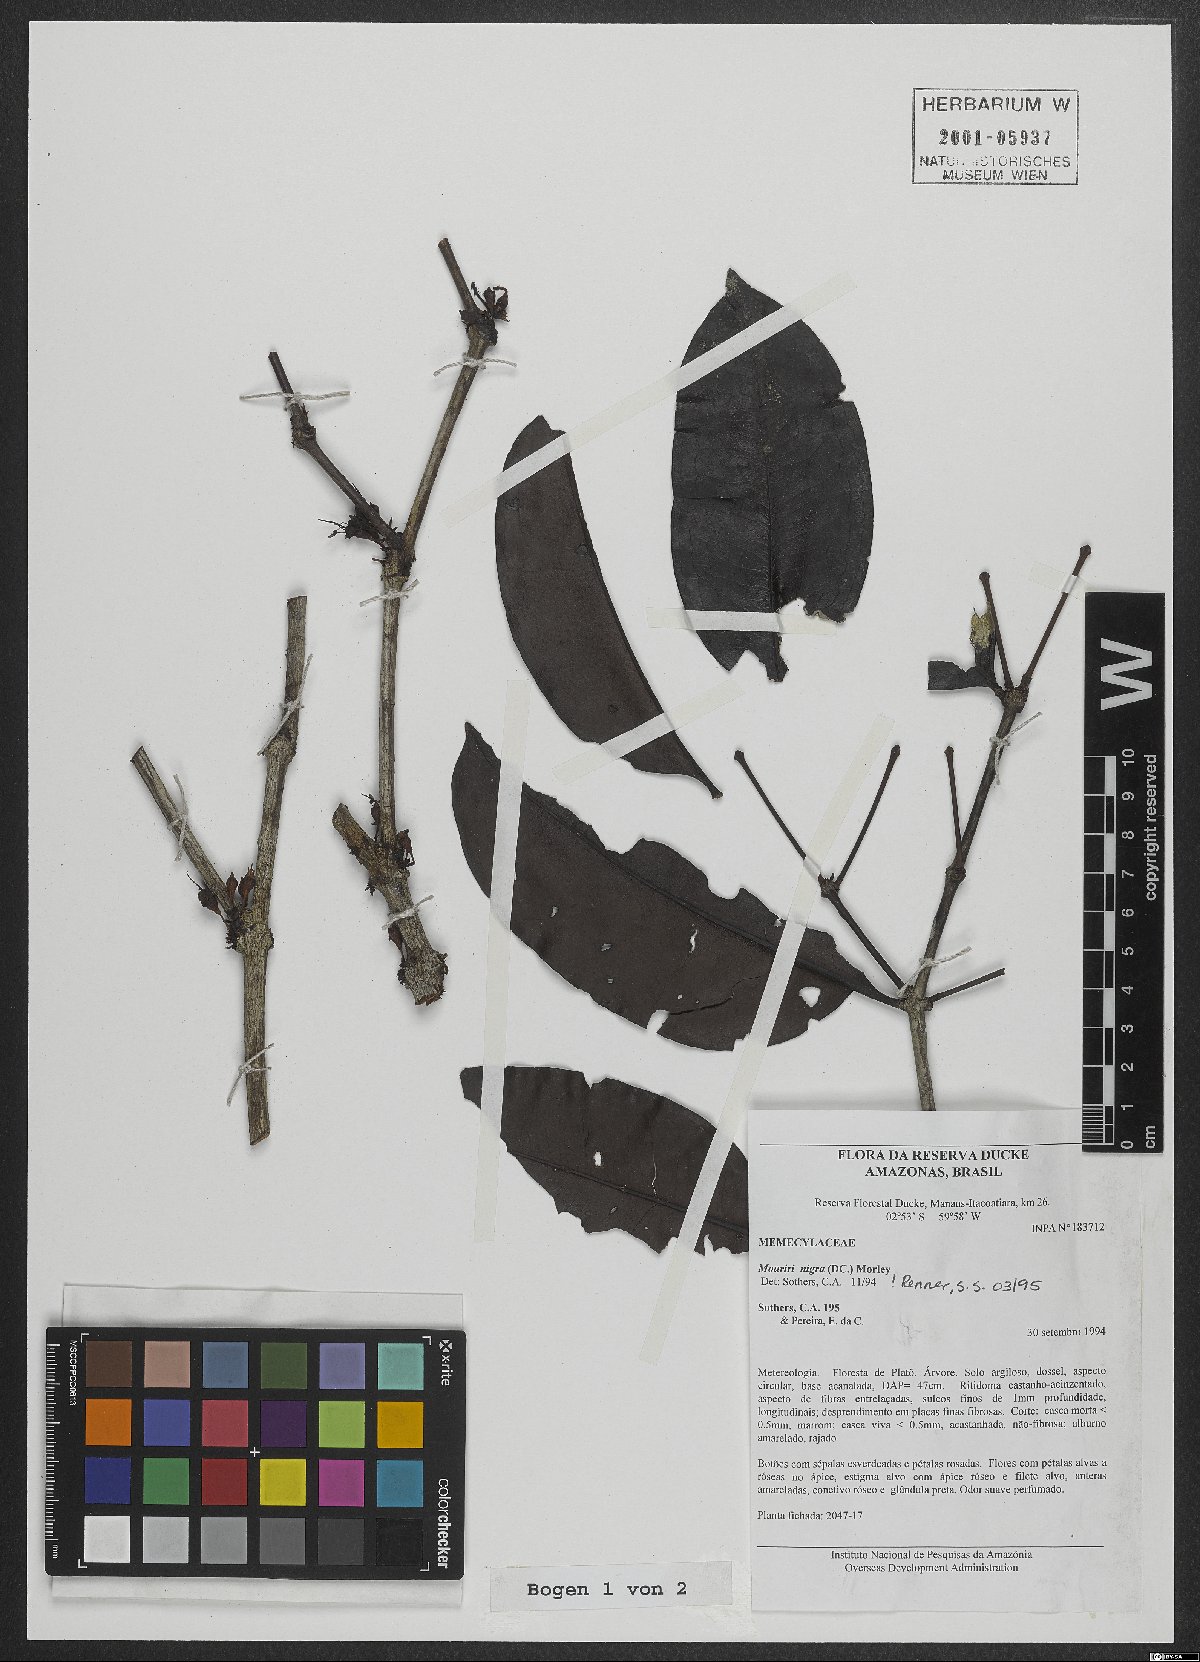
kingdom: Plantae
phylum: Tracheophyta
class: Magnoliopsida
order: Myrtales
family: Melastomataceae
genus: Mouriri
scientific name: Mouriri nigra
